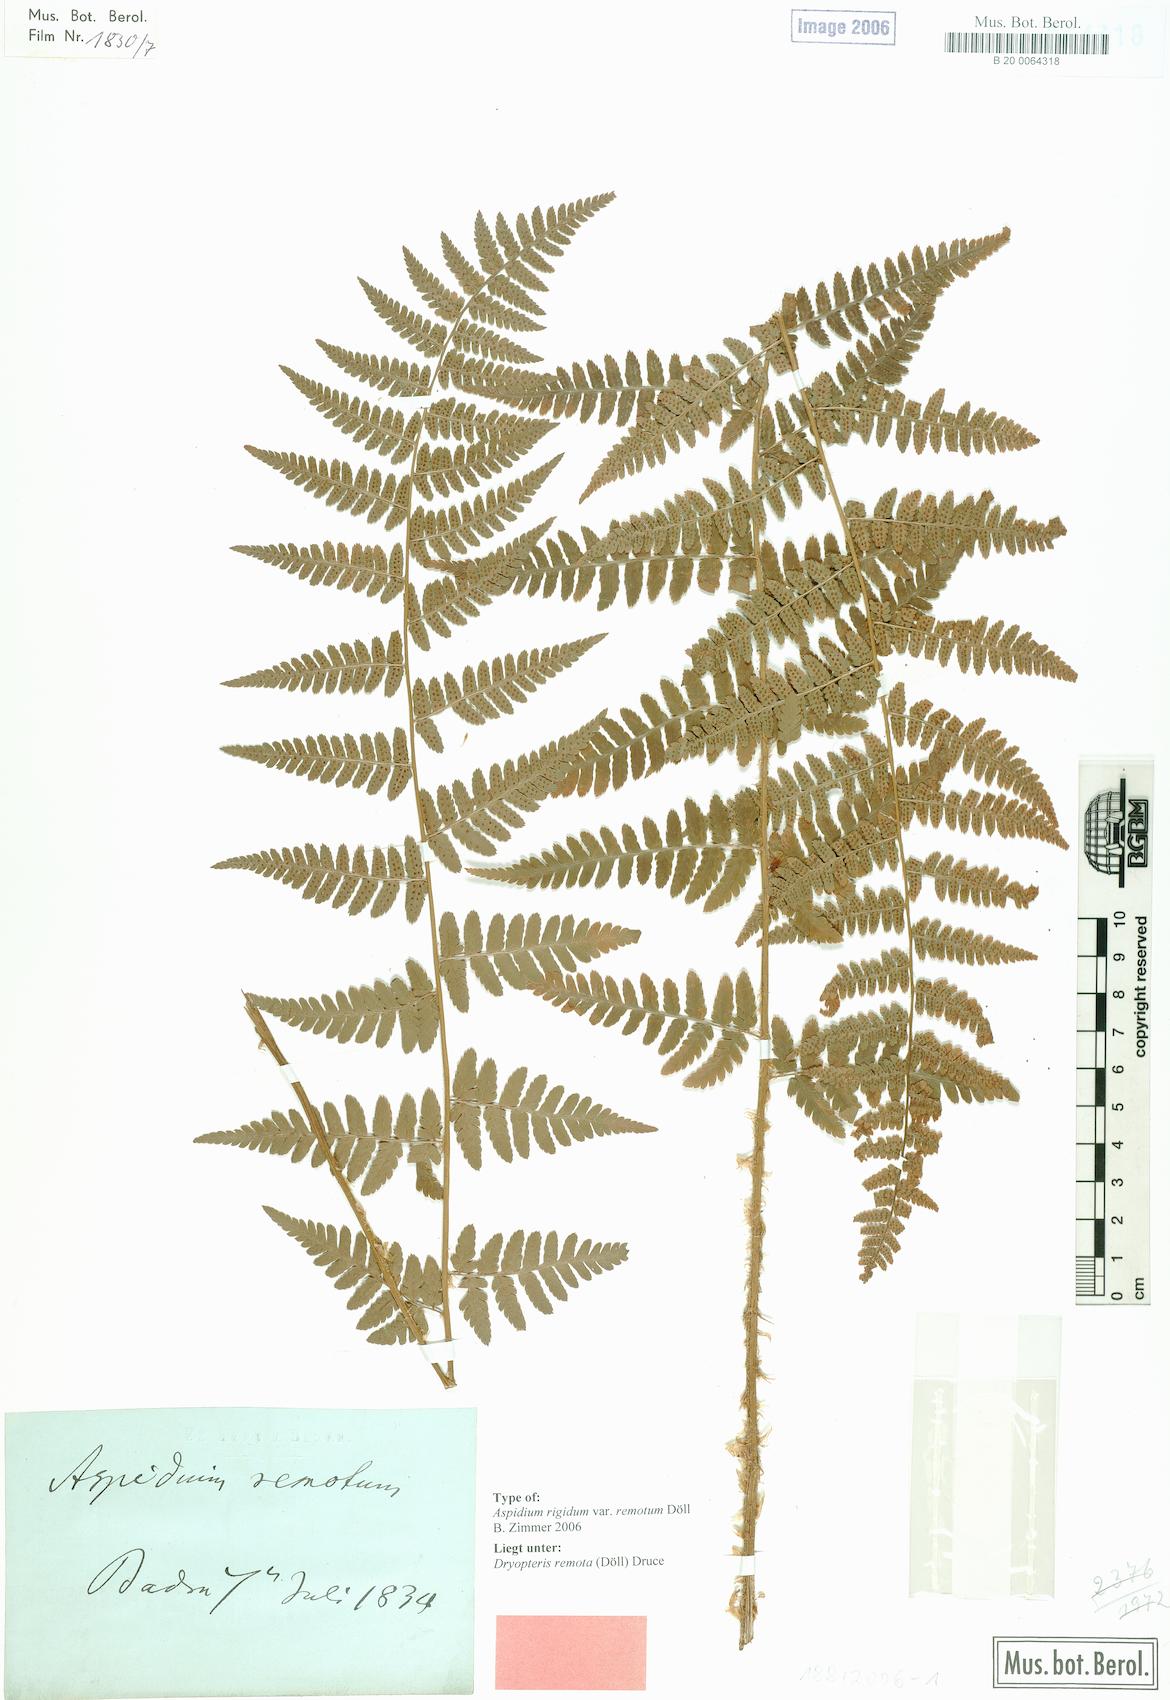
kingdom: Plantae
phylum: Tracheophyta
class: Polypodiopsida
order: Polypodiales
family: Dryopteridaceae
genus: Dryopteris
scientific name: Dryopteris remota
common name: Scaly buckler-fern
